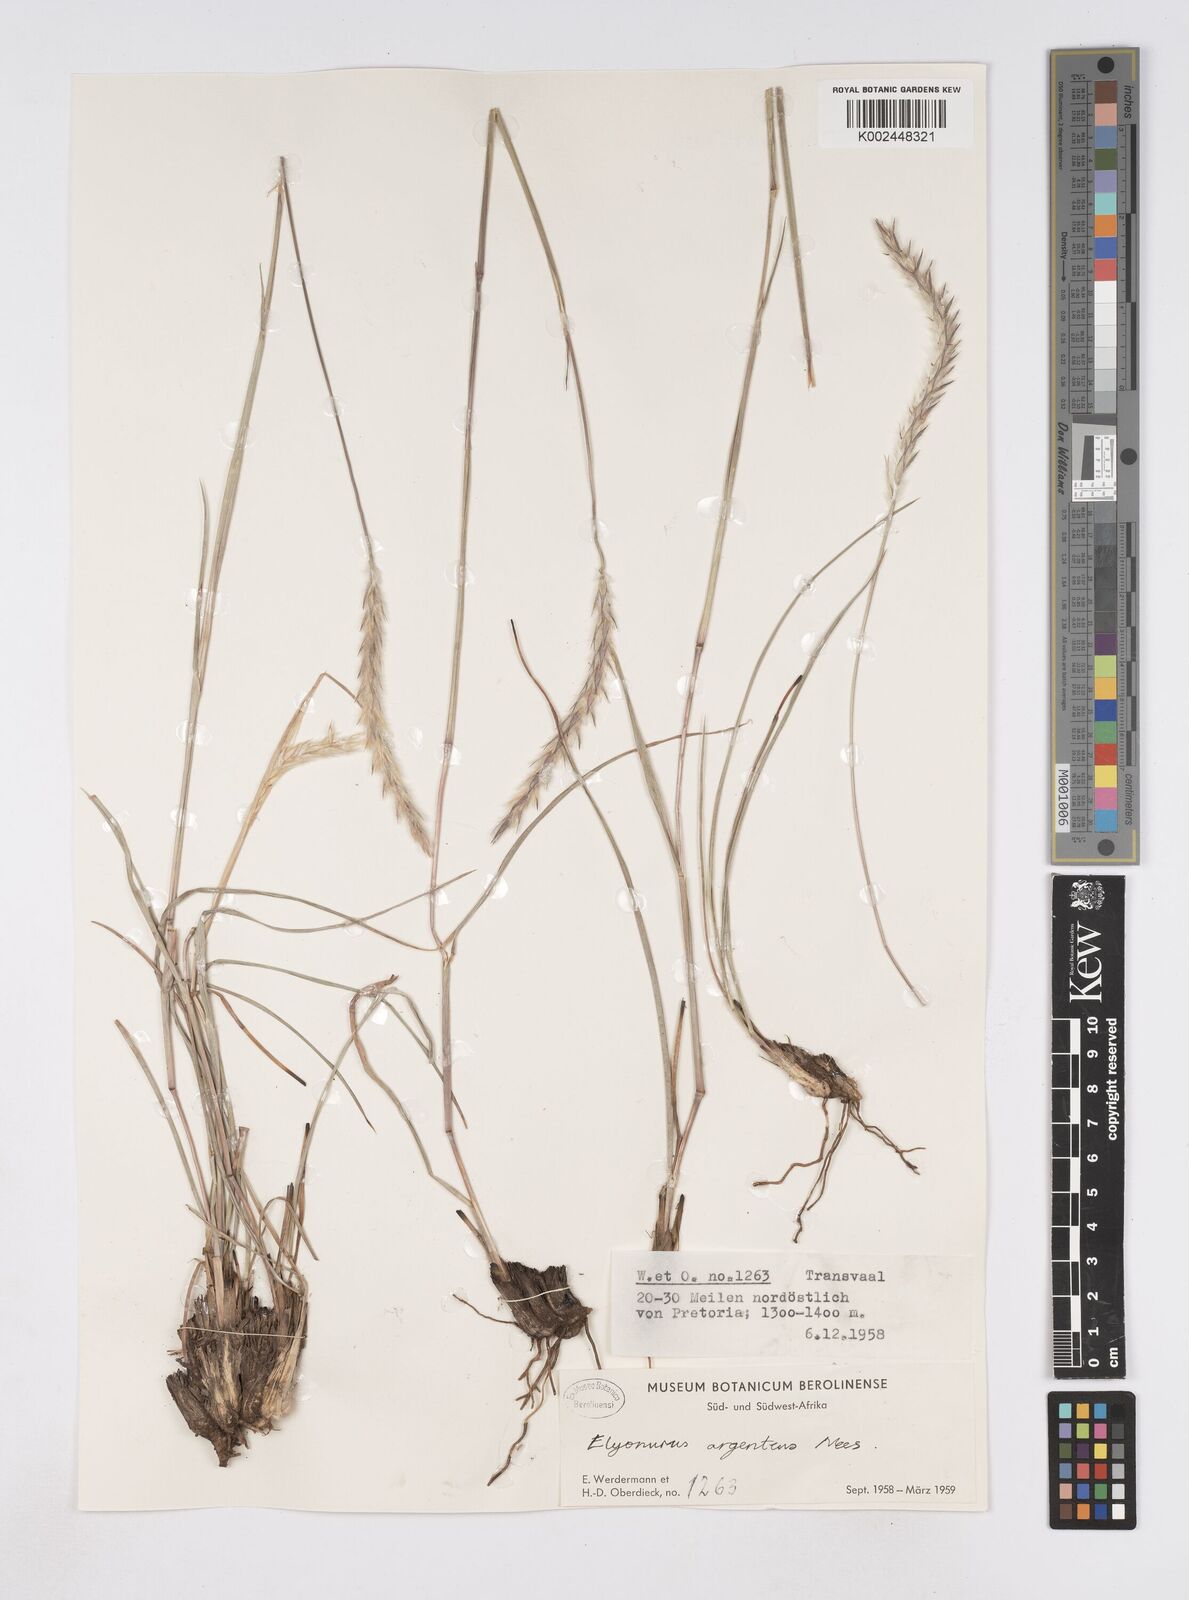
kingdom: Plantae
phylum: Tracheophyta
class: Liliopsida
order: Poales
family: Poaceae
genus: Elionurus
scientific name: Elionurus muticus
